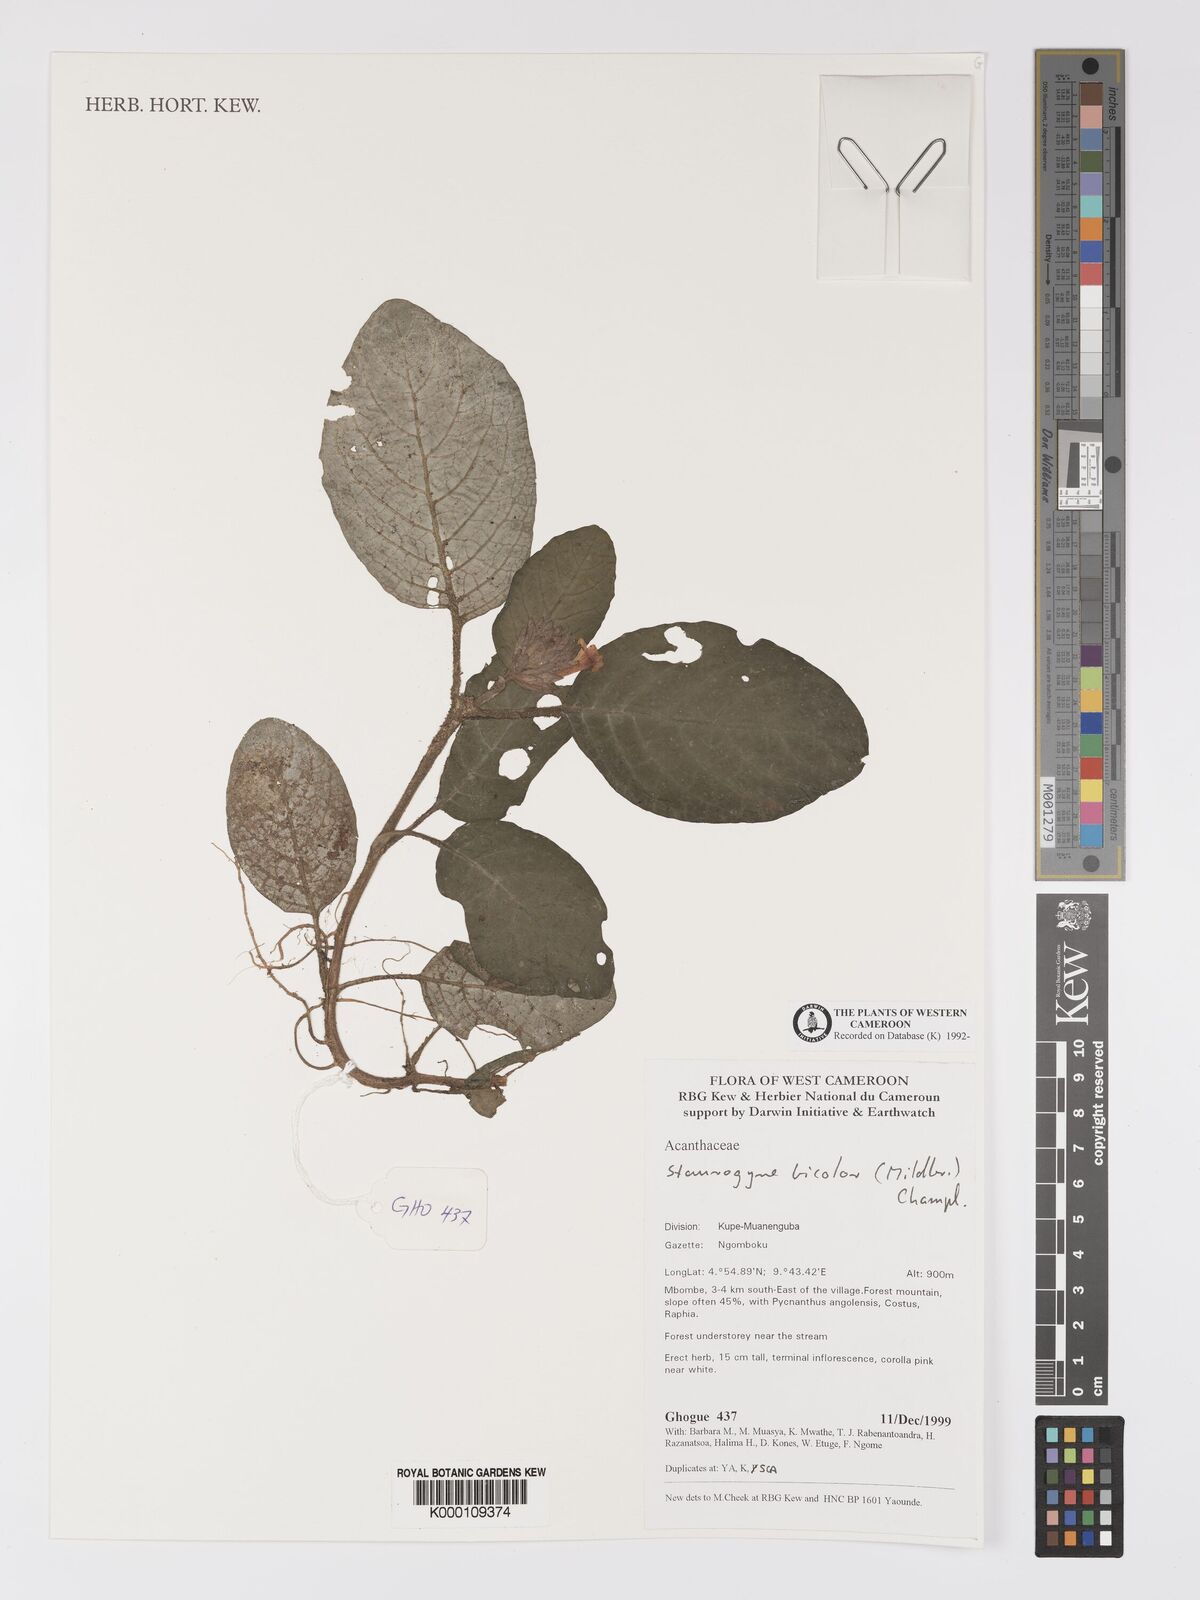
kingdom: Plantae
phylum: Tracheophyta
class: Magnoliopsida
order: Lamiales
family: Acanthaceae
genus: Staurogyne
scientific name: Staurogyne bicolor
